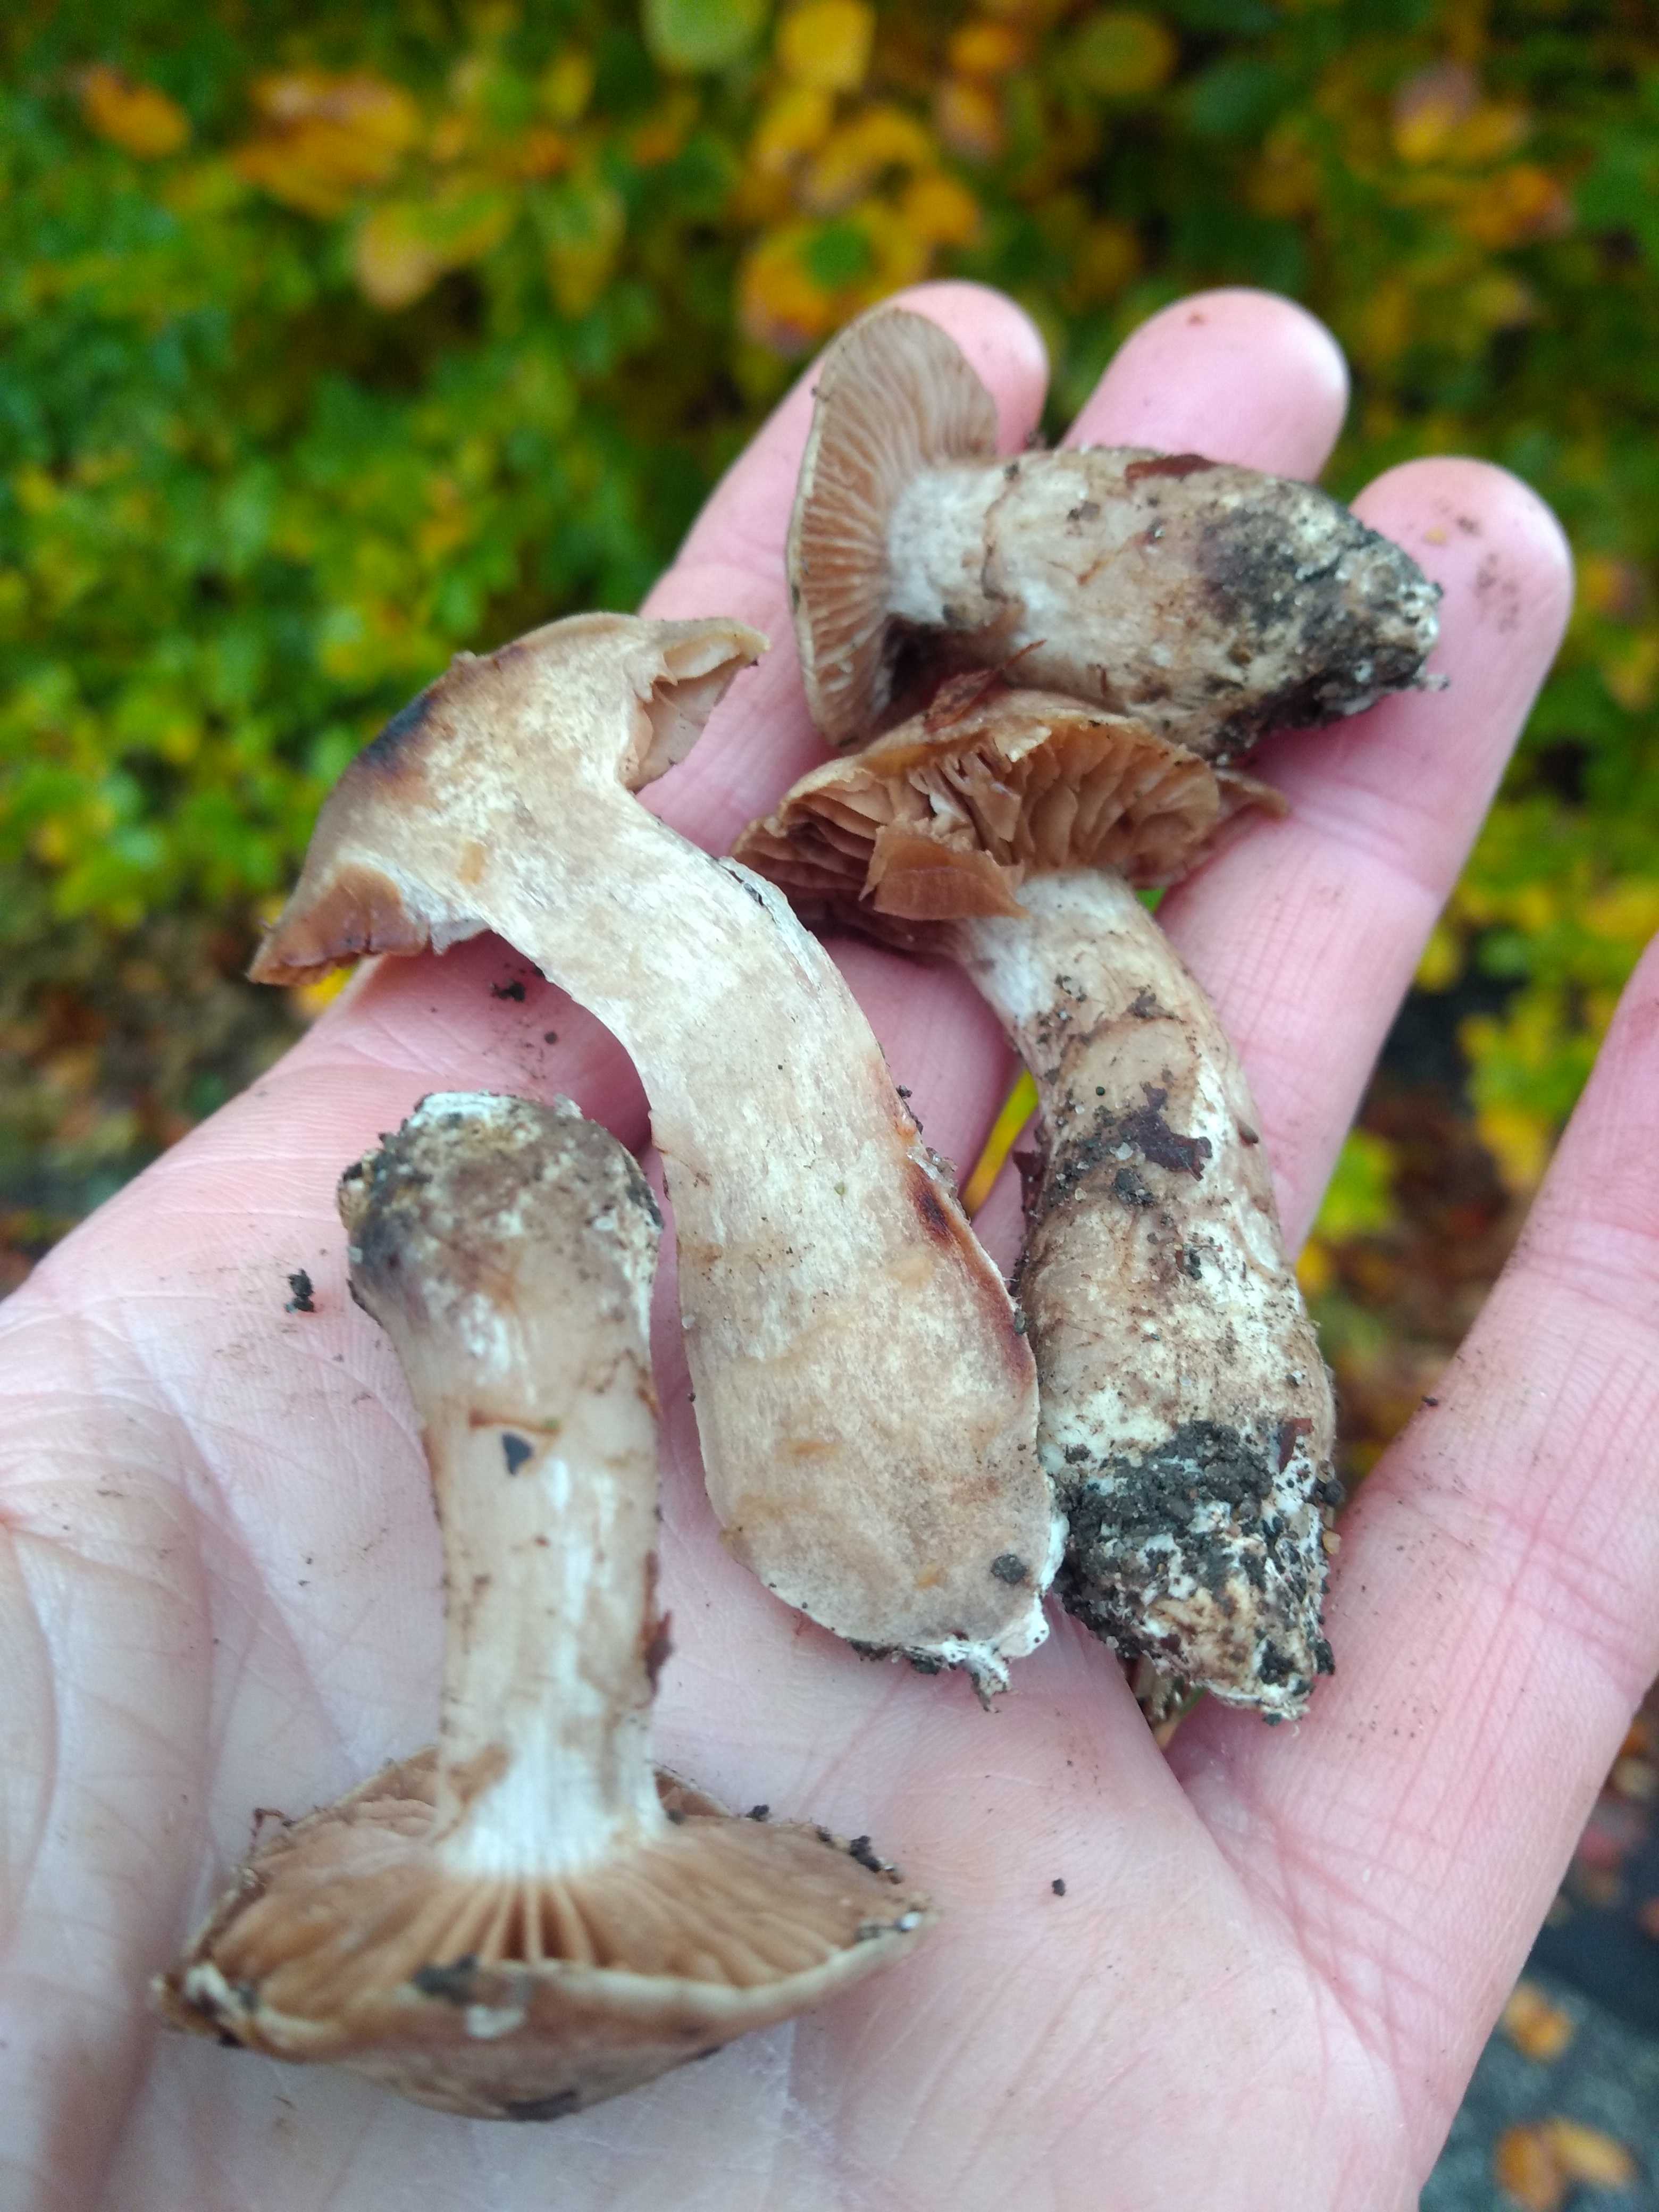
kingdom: Fungi
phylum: Basidiomycota
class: Agaricomycetes
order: Agaricales
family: Cortinariaceae
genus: Cortinarius
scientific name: Cortinarius torvus
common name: champignonagtig slørhat
